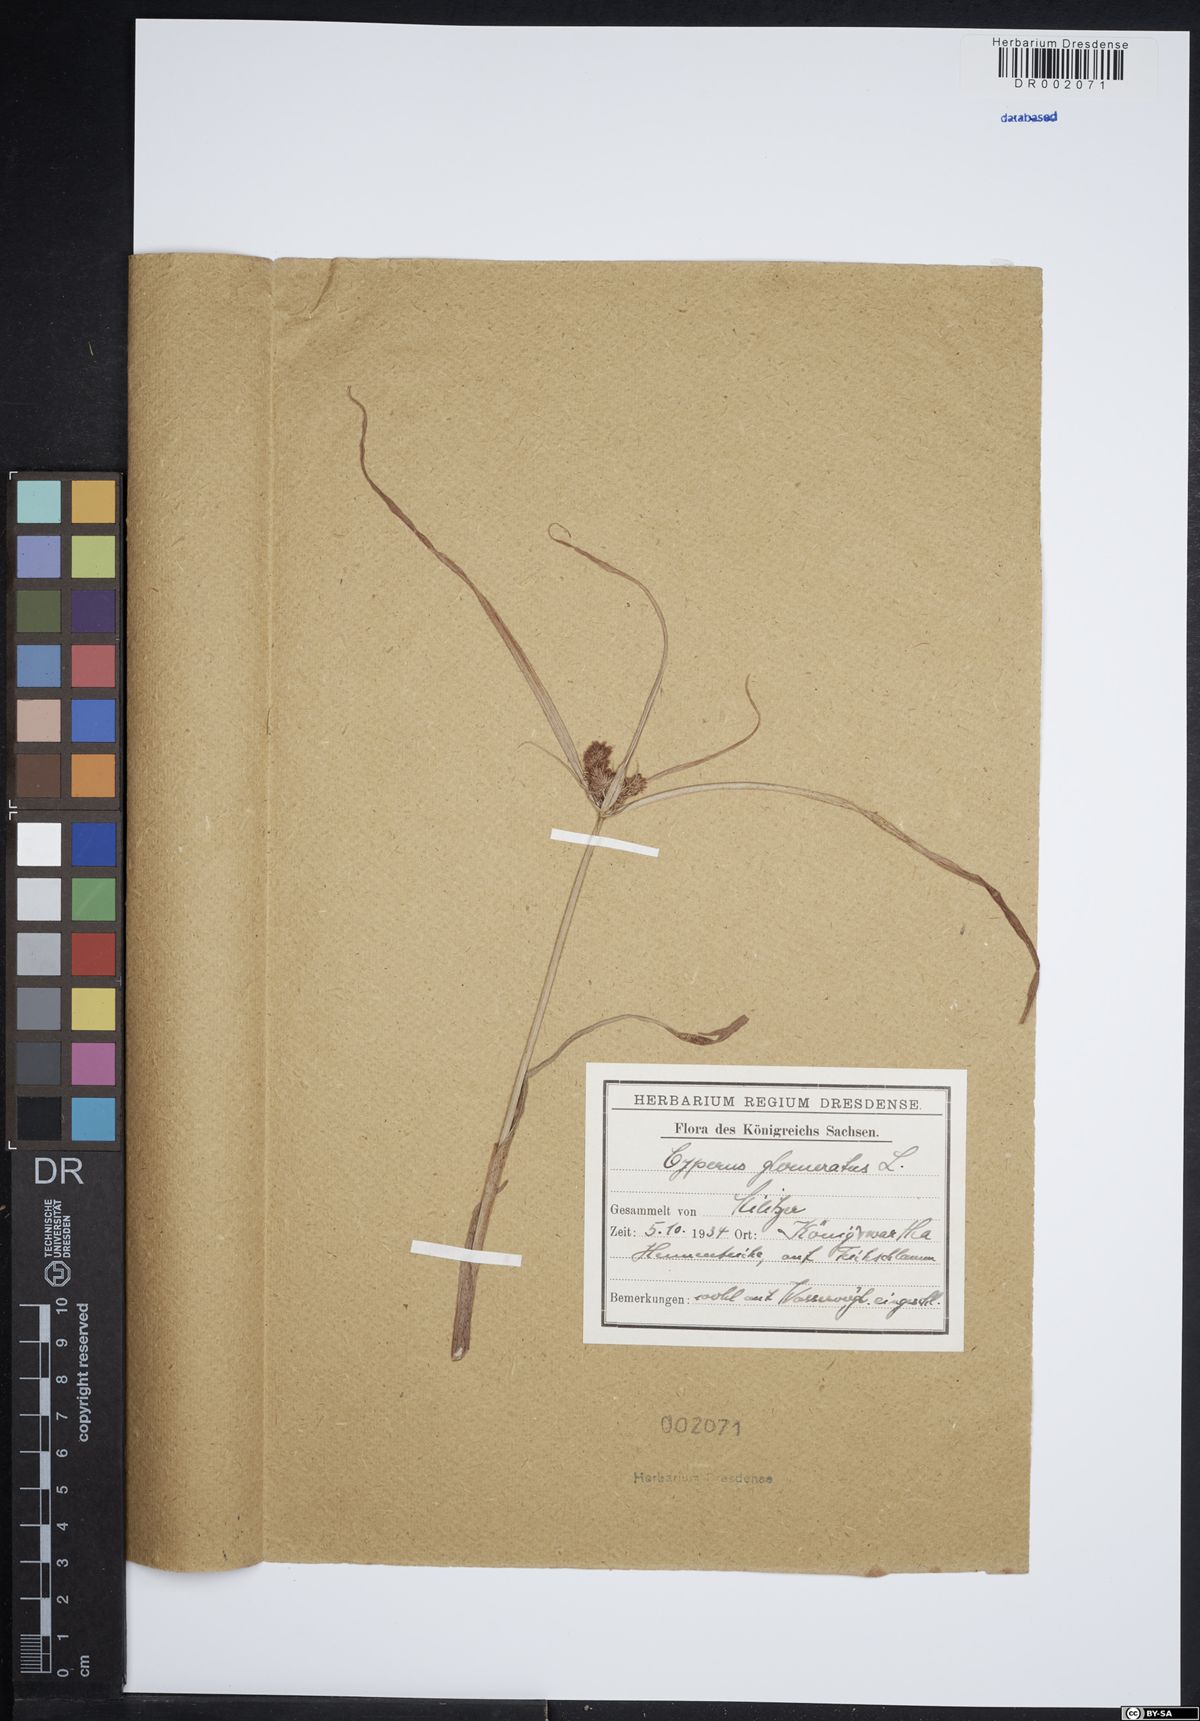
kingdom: Plantae
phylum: Tracheophyta
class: Liliopsida
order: Poales
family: Cyperaceae
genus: Cyperus
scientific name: Cyperus glomeratus
